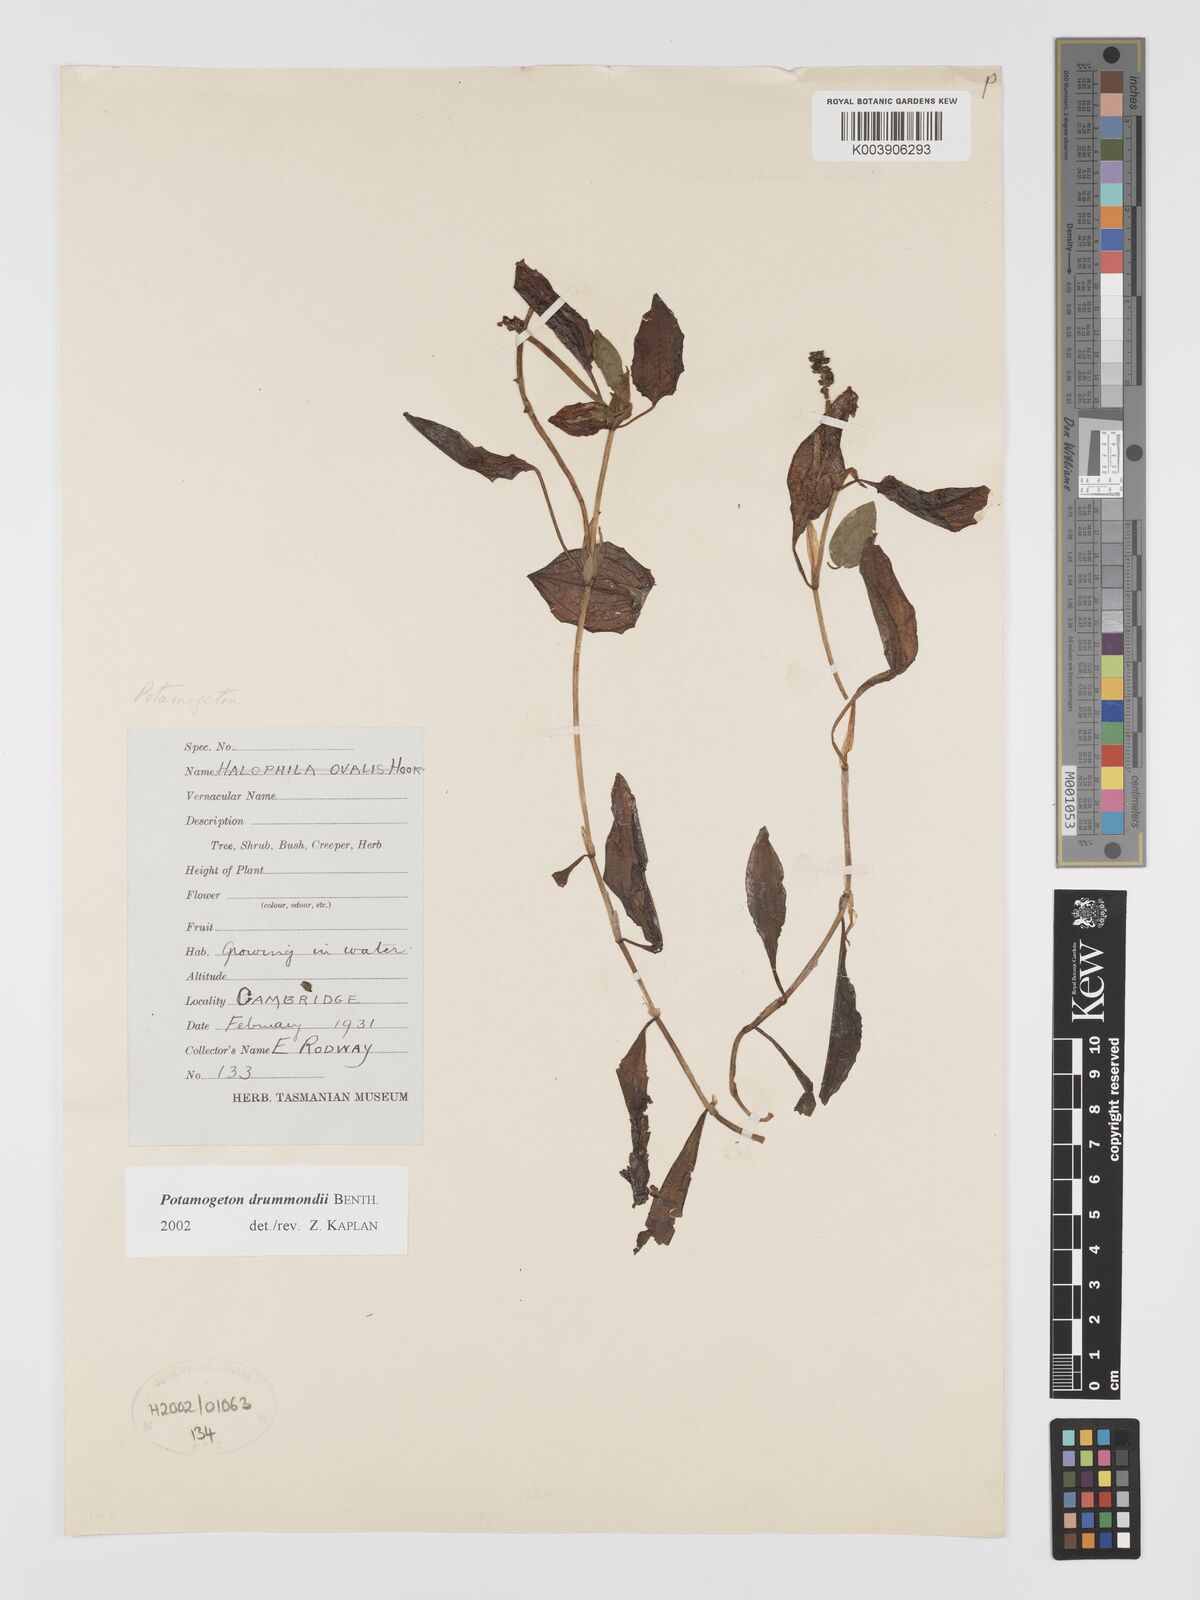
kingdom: Plantae
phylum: Tracheophyta
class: Liliopsida
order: Alismatales
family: Potamogetonaceae
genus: Potamogeton
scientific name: Potamogeton drummondii
